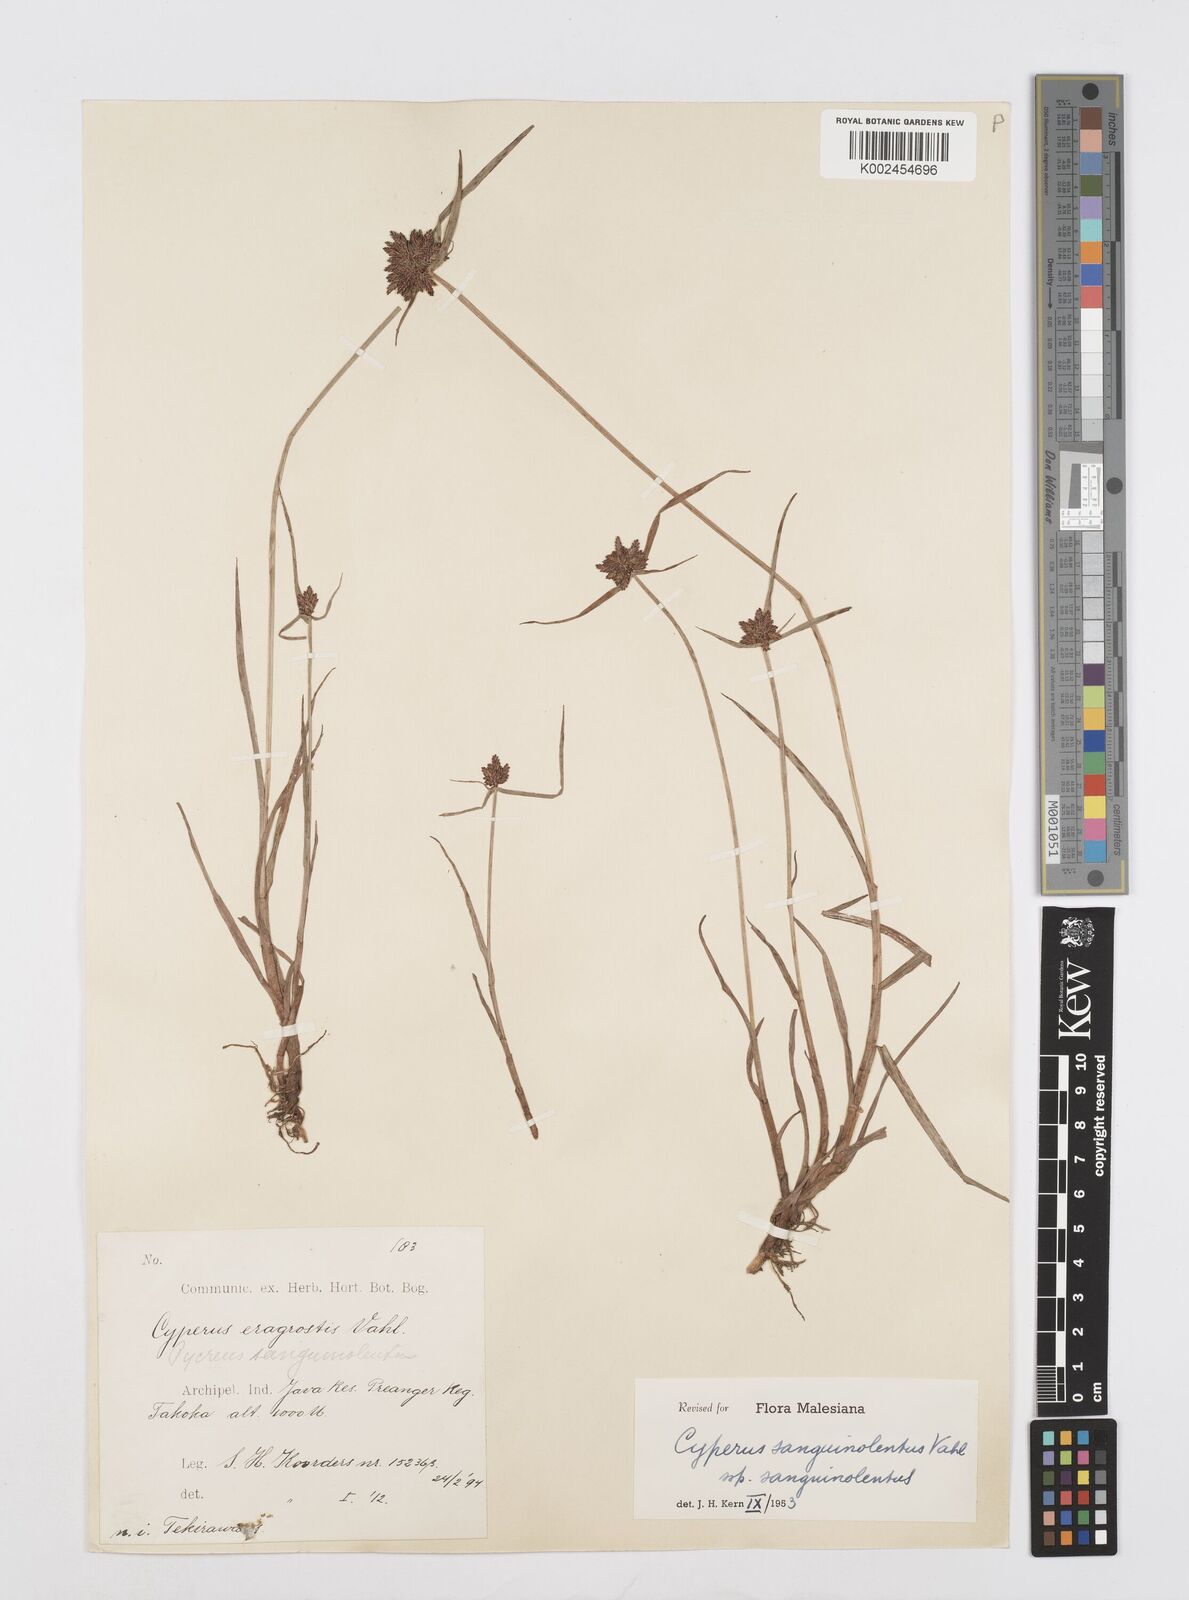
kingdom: Plantae
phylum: Tracheophyta
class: Liliopsida
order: Poales
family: Cyperaceae
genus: Cyperus
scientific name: Cyperus sanguinolentus
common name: Purpleglume flatsedge
